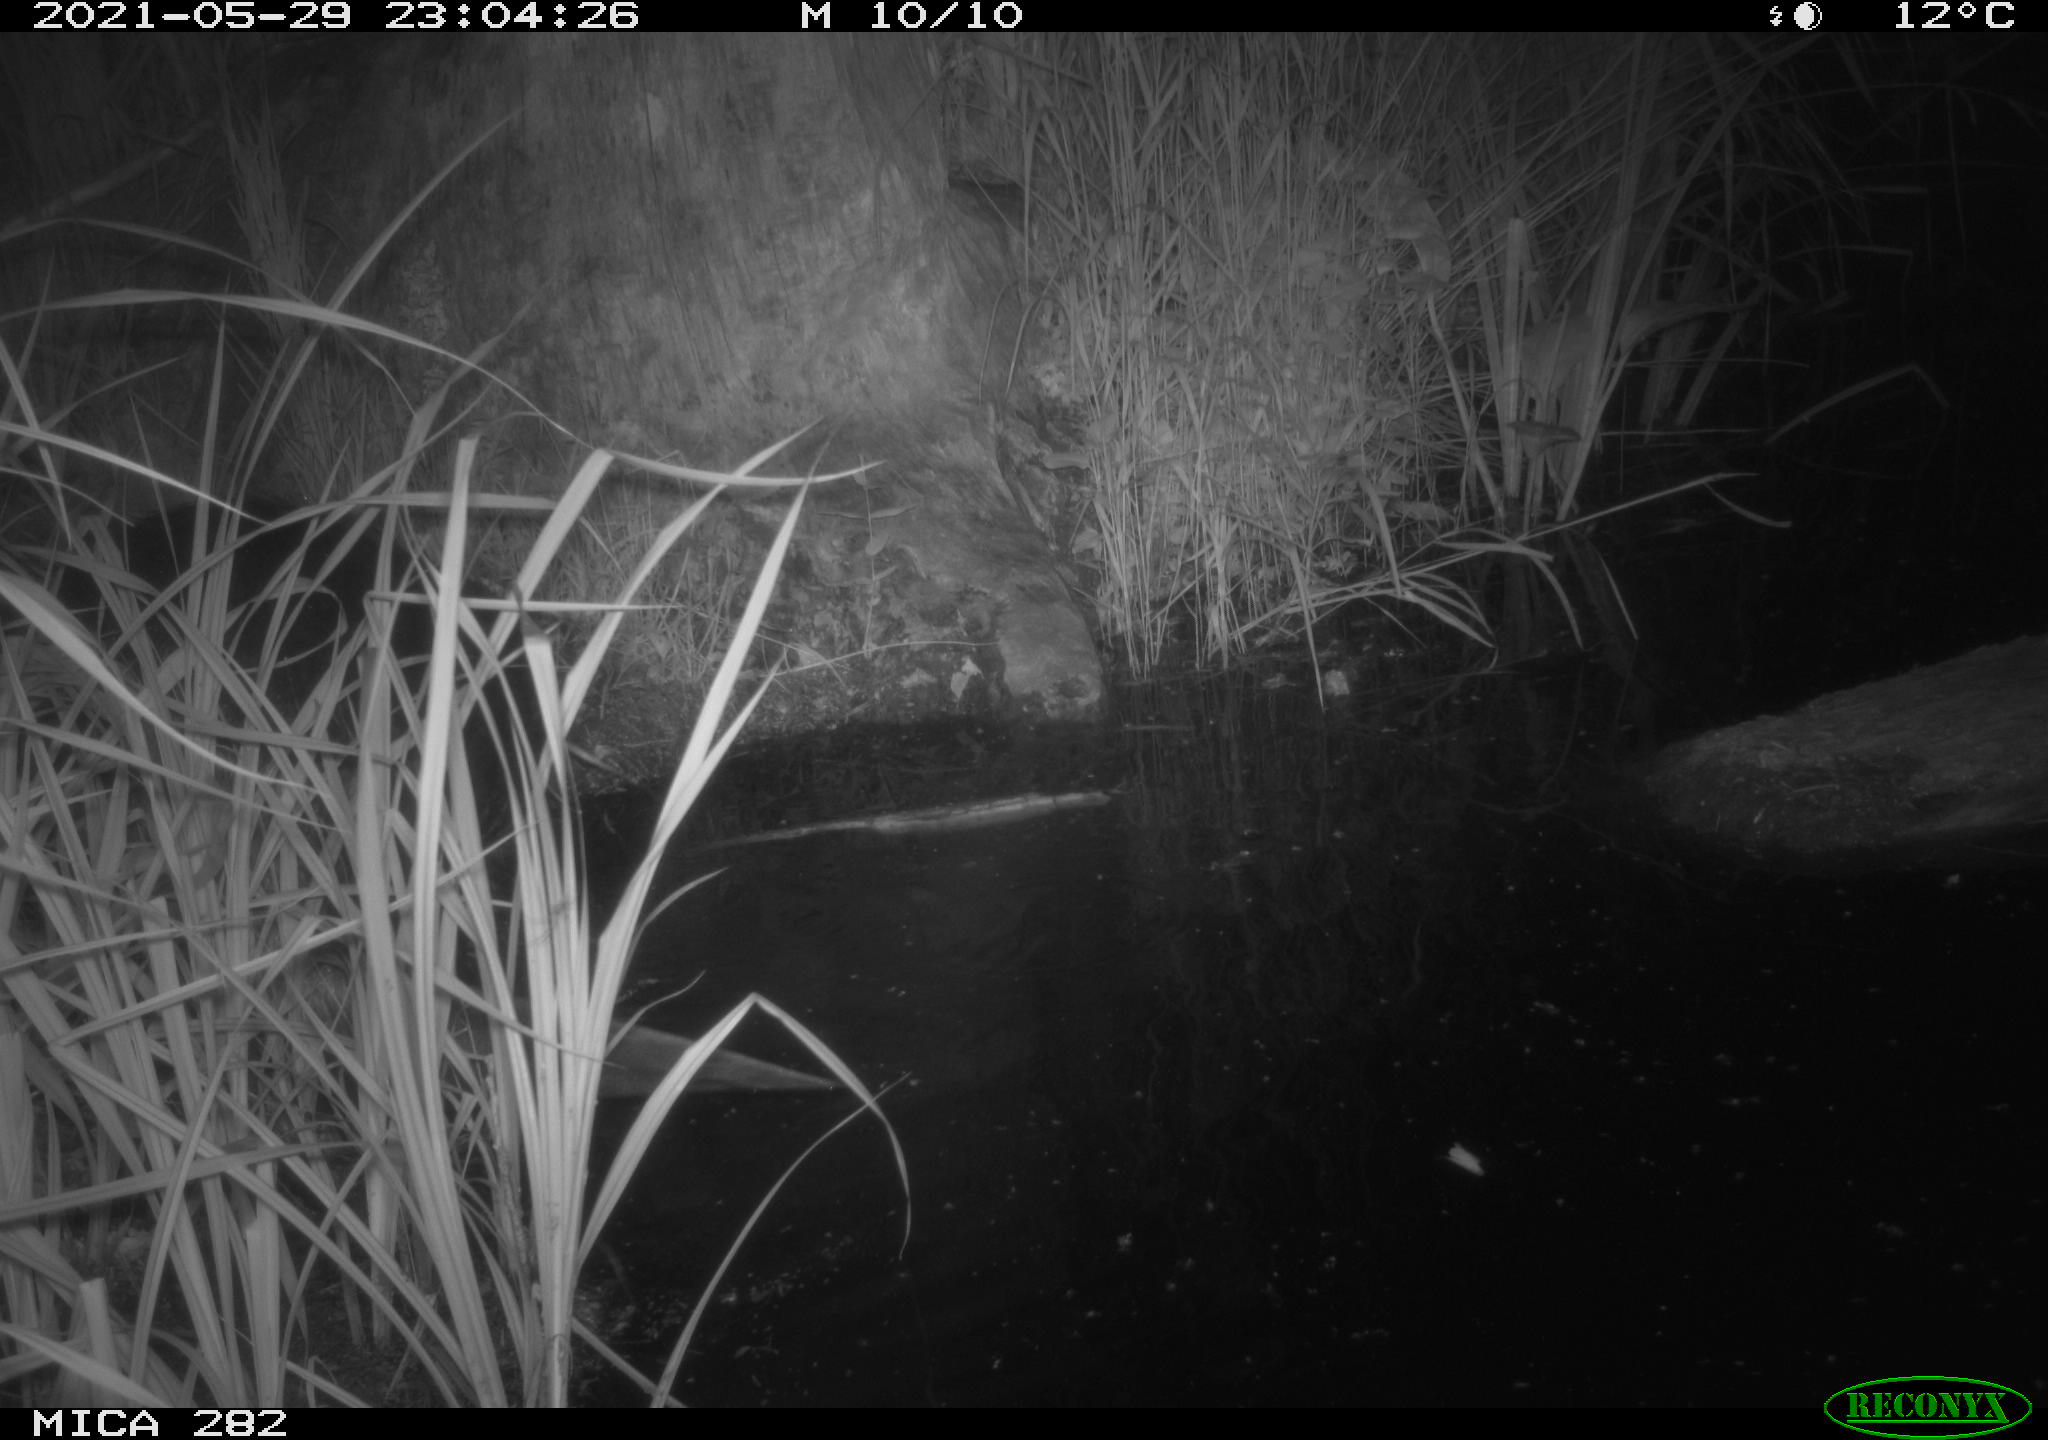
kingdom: Animalia
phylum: Chordata
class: Mammalia
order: Rodentia
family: Castoridae
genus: Castor
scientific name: Castor fiber
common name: Eurasian beaver
